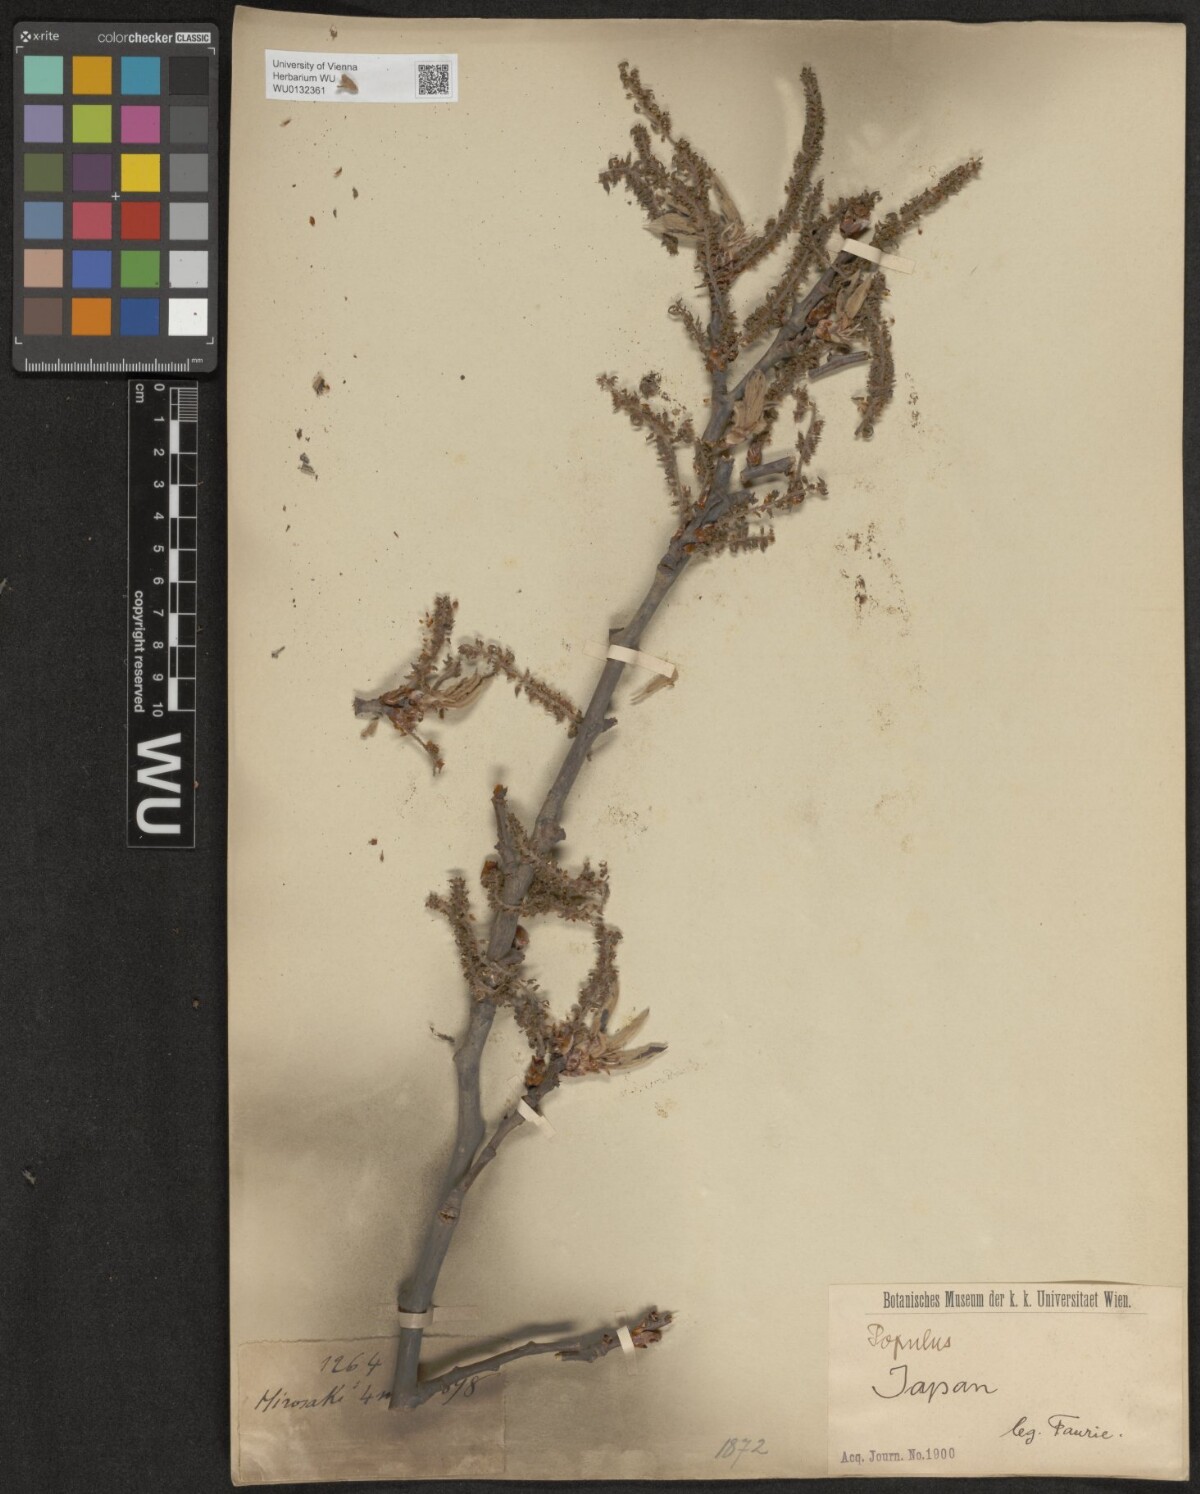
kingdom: Plantae
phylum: Tracheophyta
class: Magnoliopsida
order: Malpighiales
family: Salicaceae
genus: Populus
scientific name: Populus sieboldii
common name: Japanese aspen
